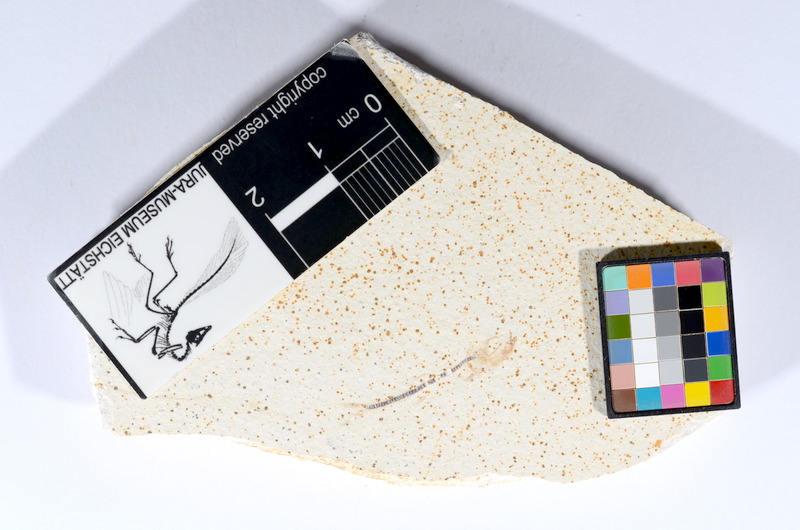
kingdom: Animalia
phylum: Chordata
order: Salmoniformes
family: Orthogonikleithridae
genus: Orthogonikleithrus
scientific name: Orthogonikleithrus hoelli
